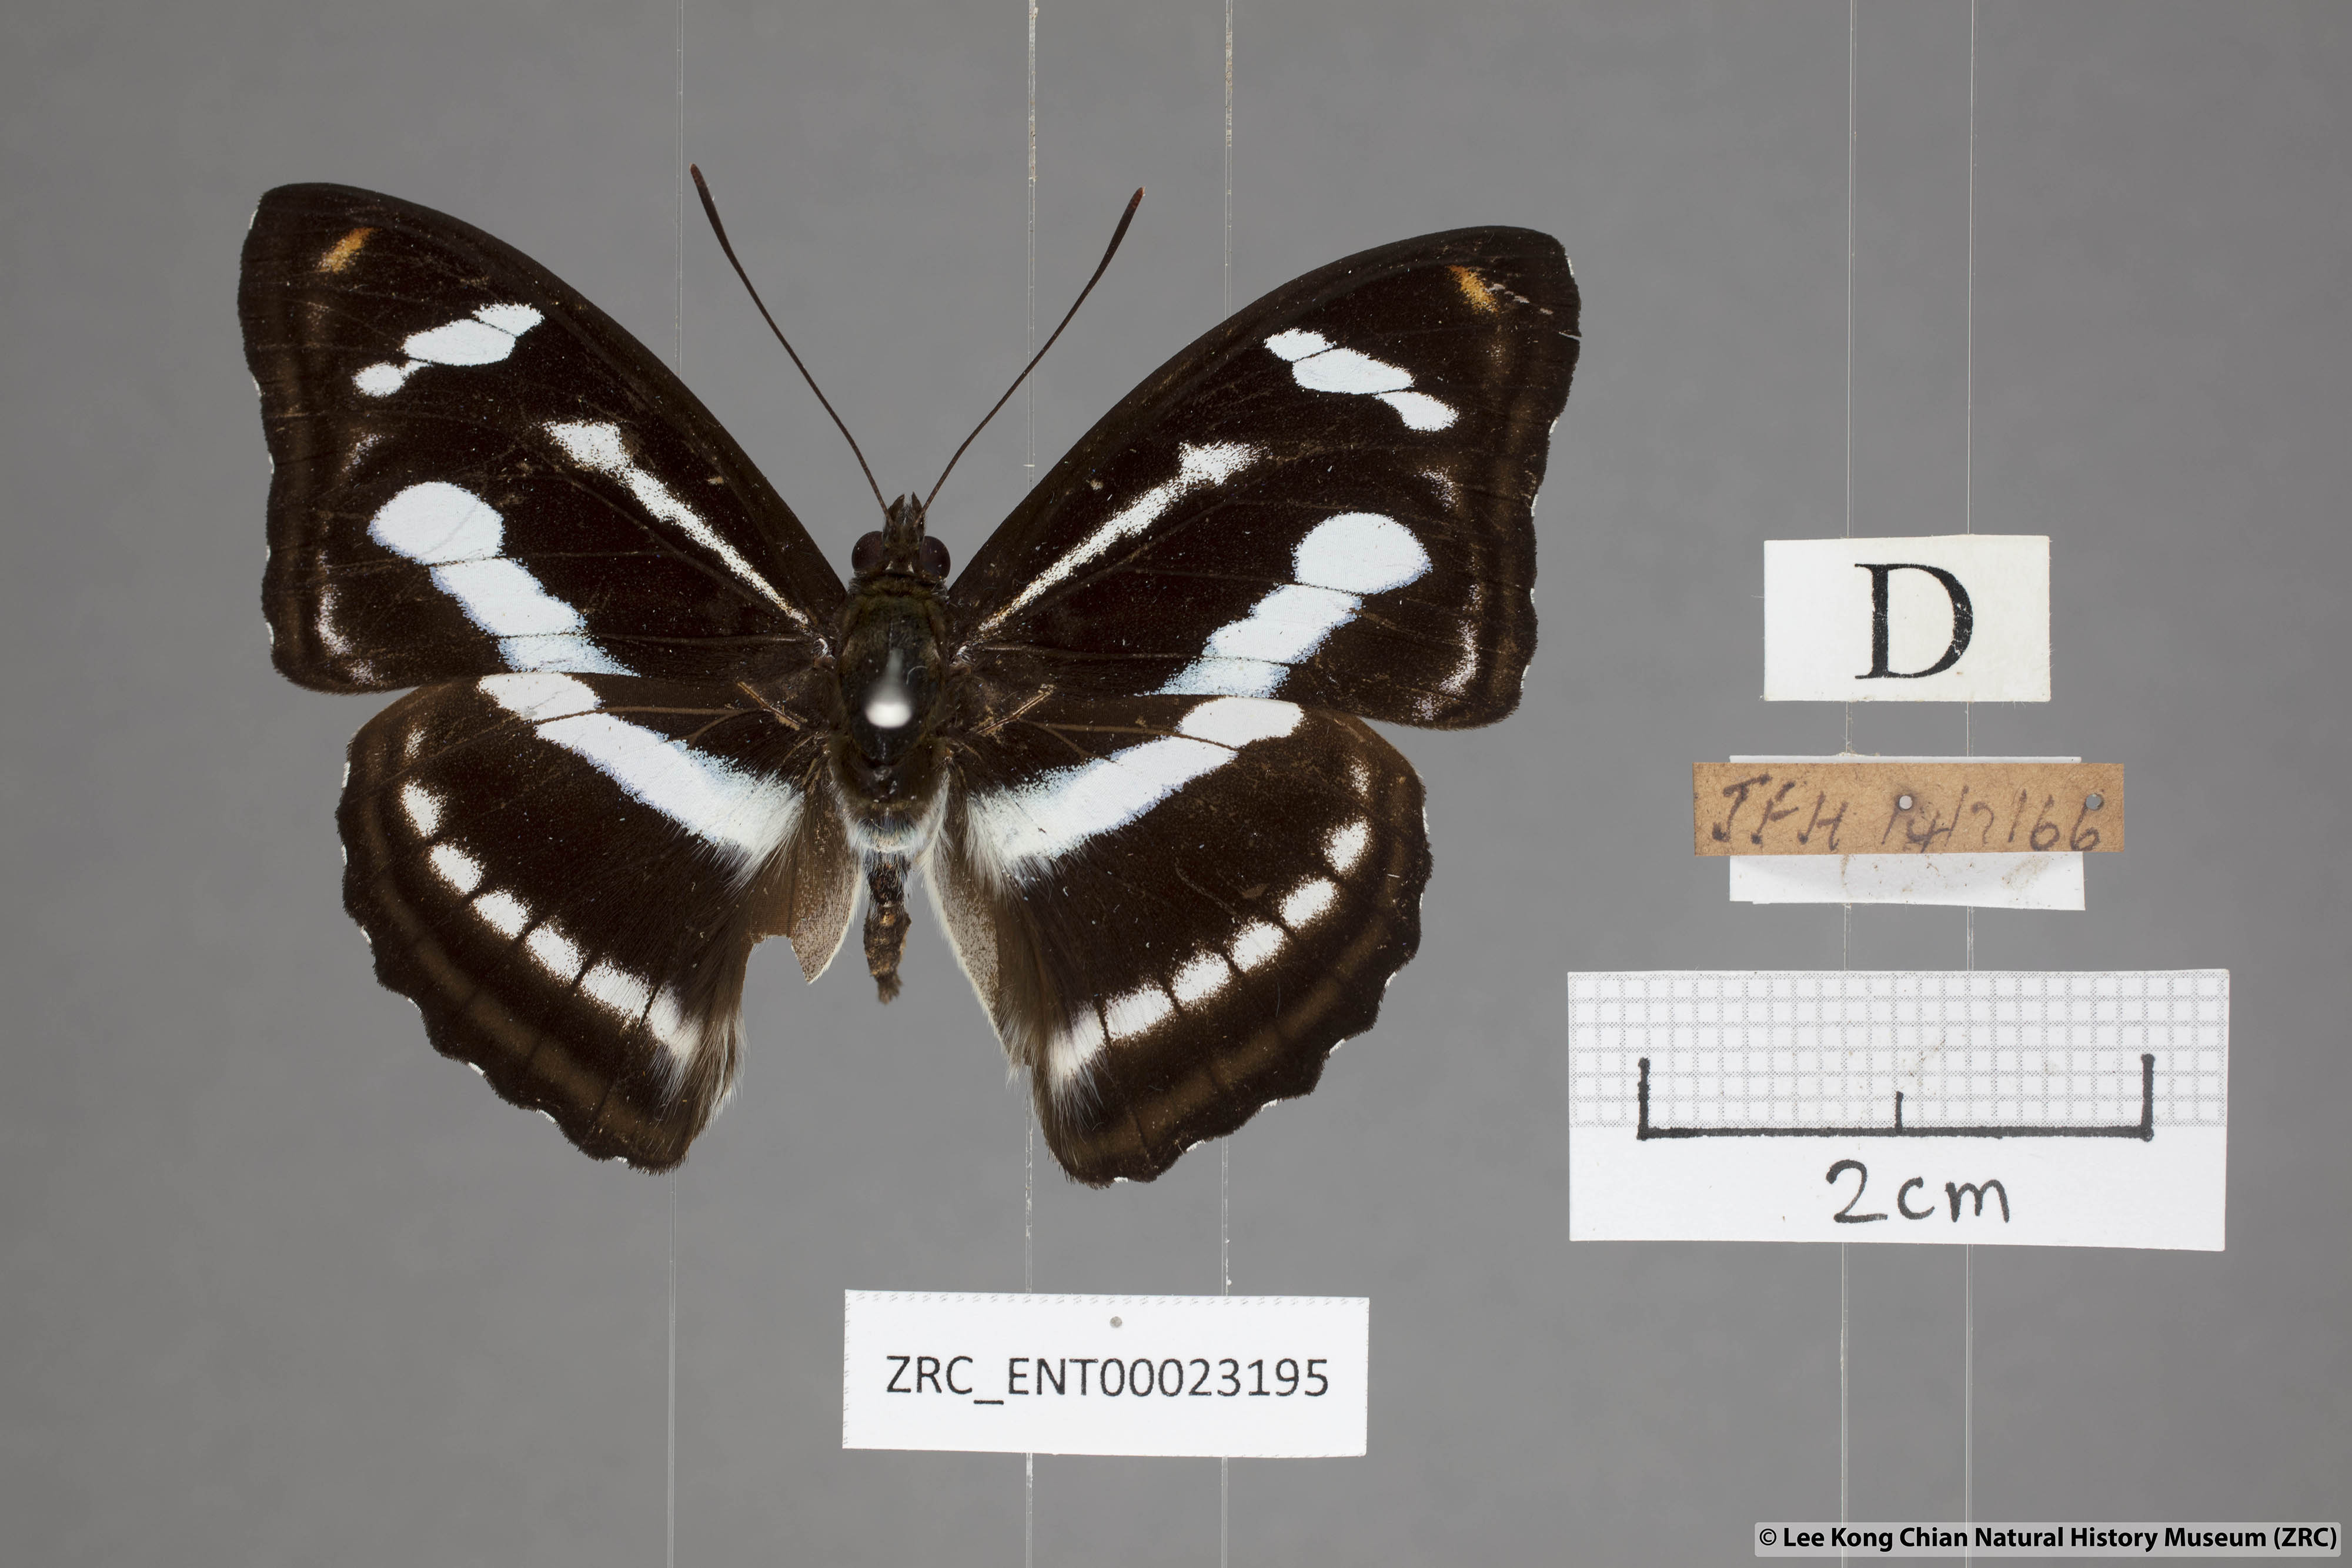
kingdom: Animalia
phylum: Arthropoda
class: Insecta
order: Lepidoptera
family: Nymphalidae
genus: Pantoporia
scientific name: Pantoporia cama
